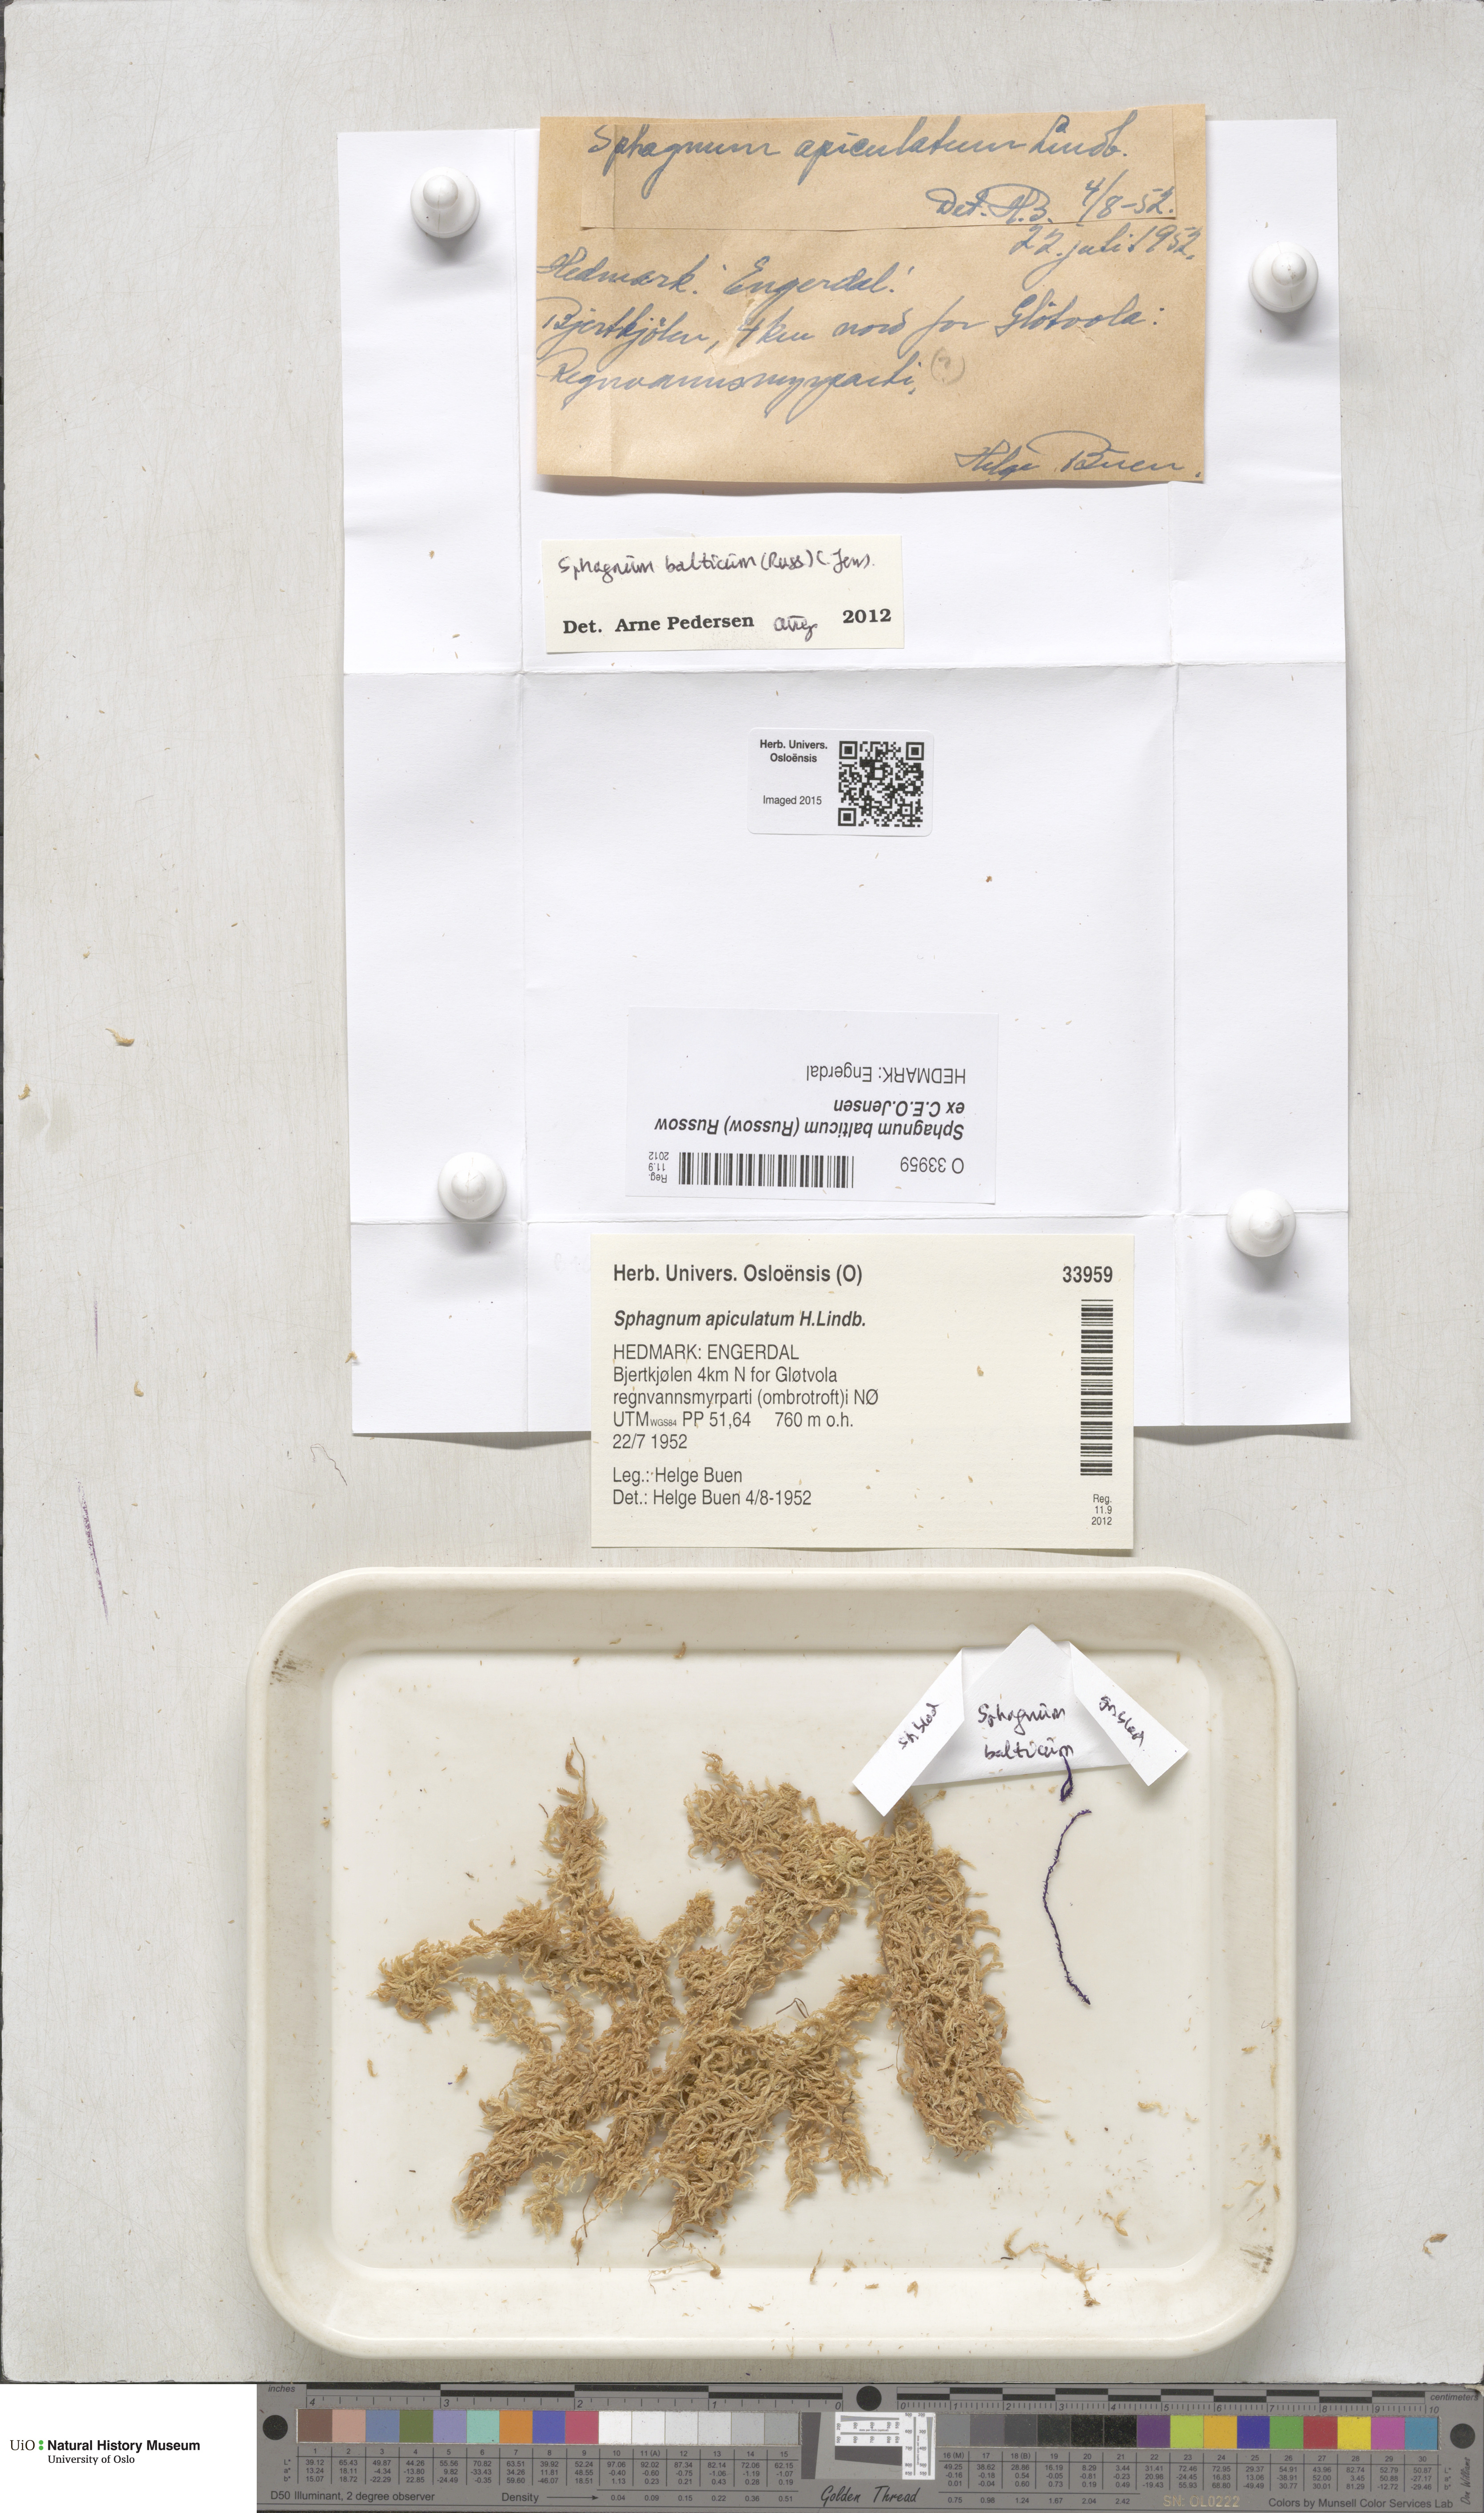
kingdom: Plantae
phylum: Bryophyta
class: Sphagnopsida
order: Sphagnales
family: Sphagnaceae
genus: Sphagnum
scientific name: Sphagnum balticum
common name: Baltic bog-moss
